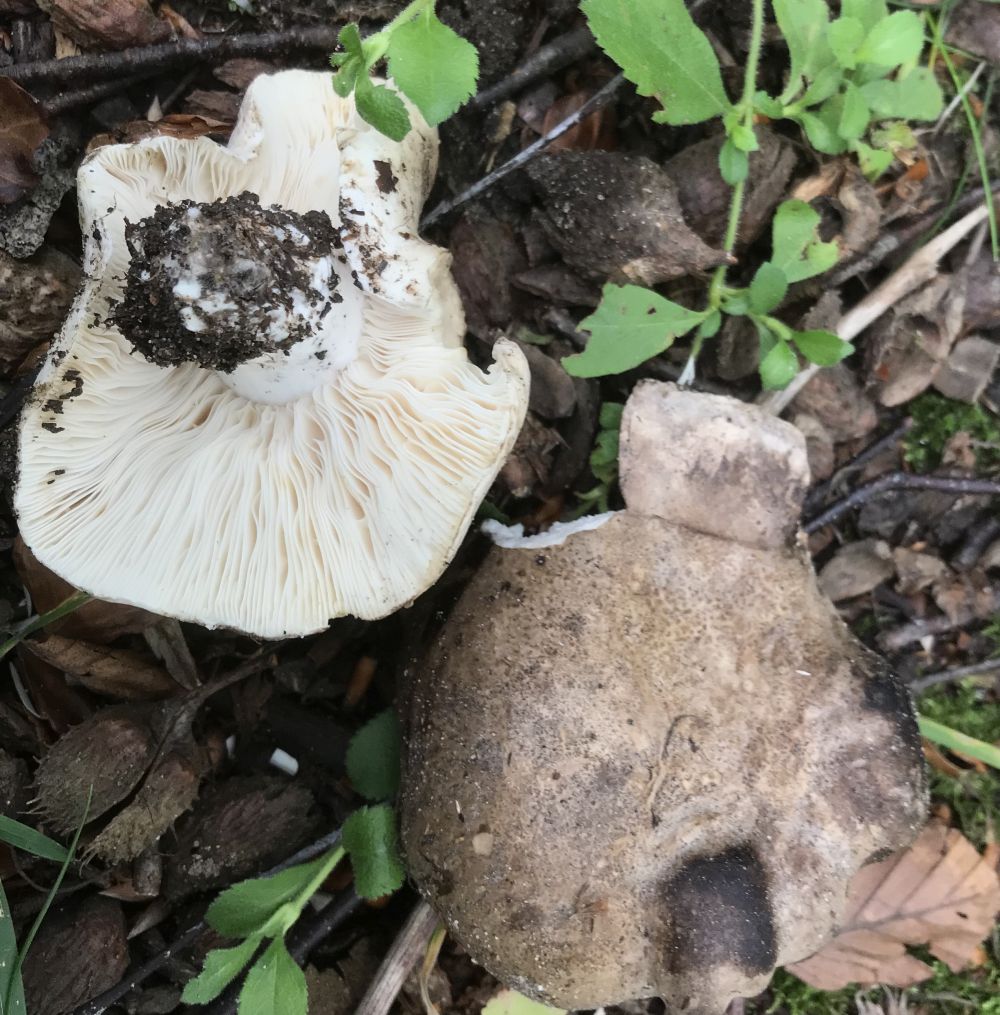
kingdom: Fungi
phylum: Basidiomycota
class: Agaricomycetes
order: Russulales
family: Russulaceae
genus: Russula
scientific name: Russula
